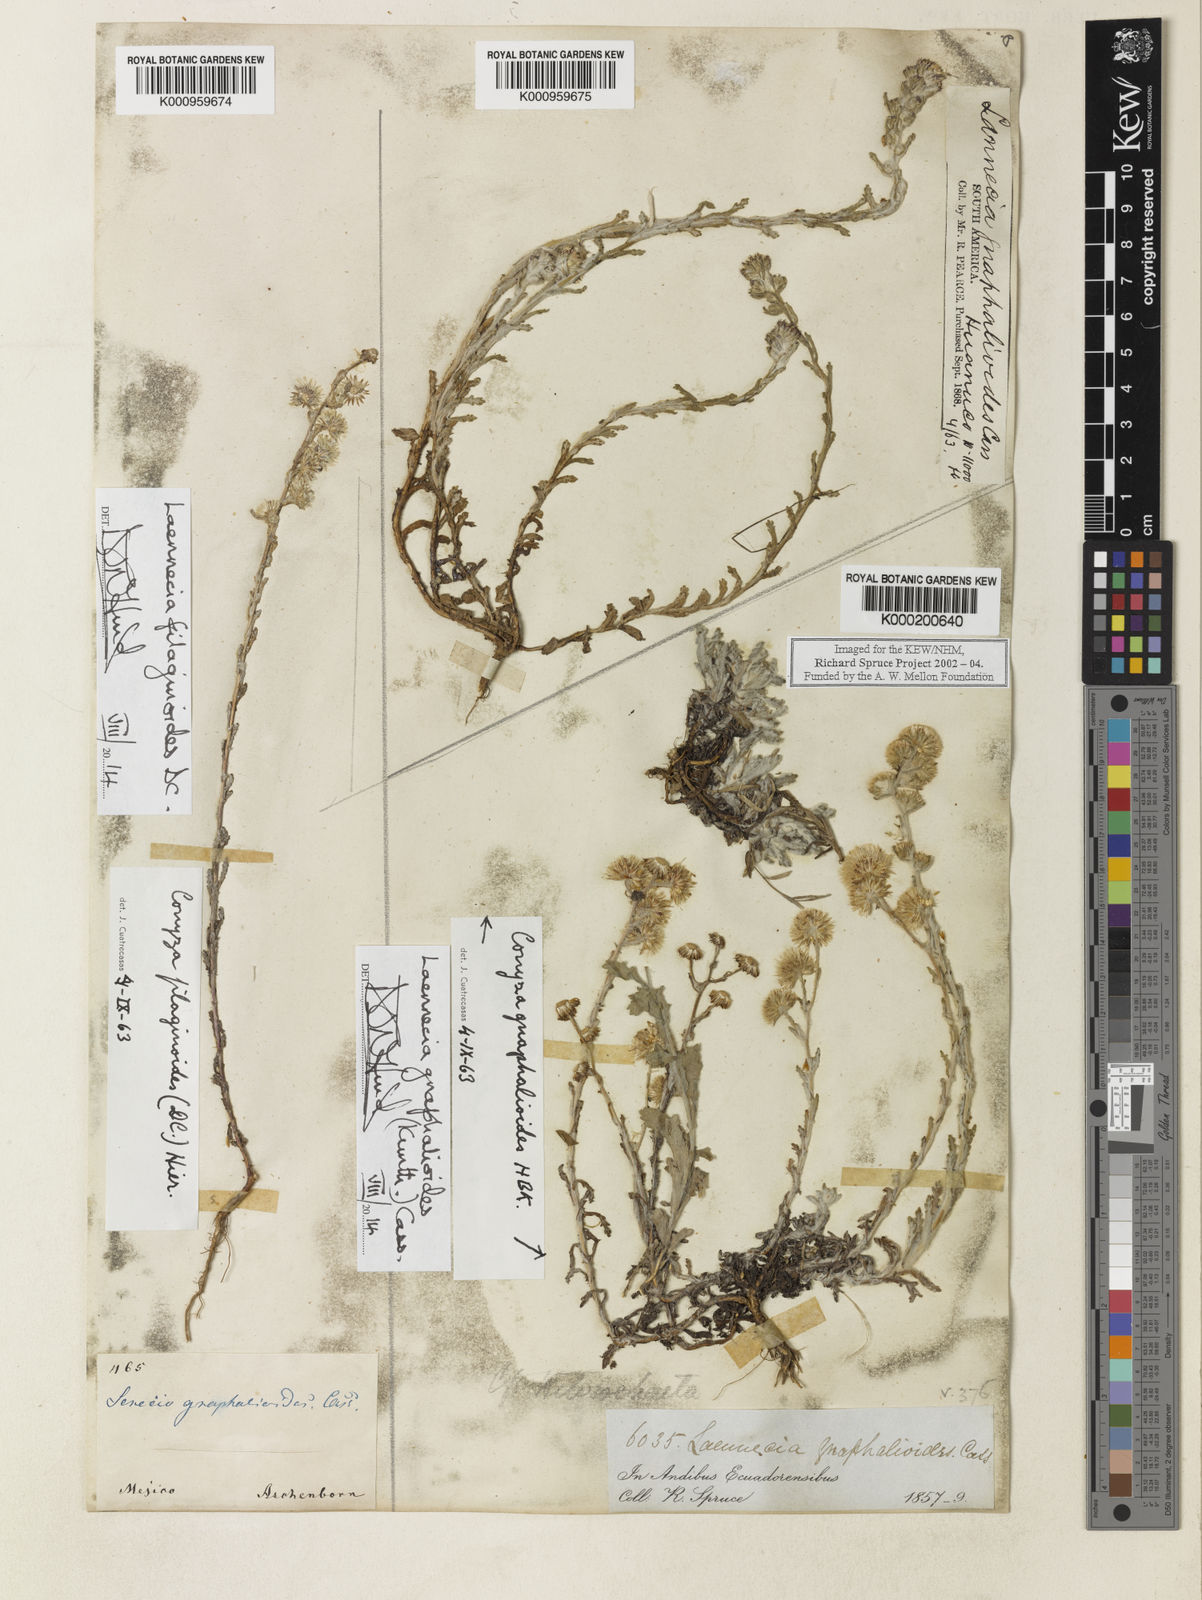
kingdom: Plantae
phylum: Tracheophyta
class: Magnoliopsida
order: Asterales
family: Asteraceae
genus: Laennecia
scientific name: Laennecia filaginoides
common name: Transpecos marshtail
